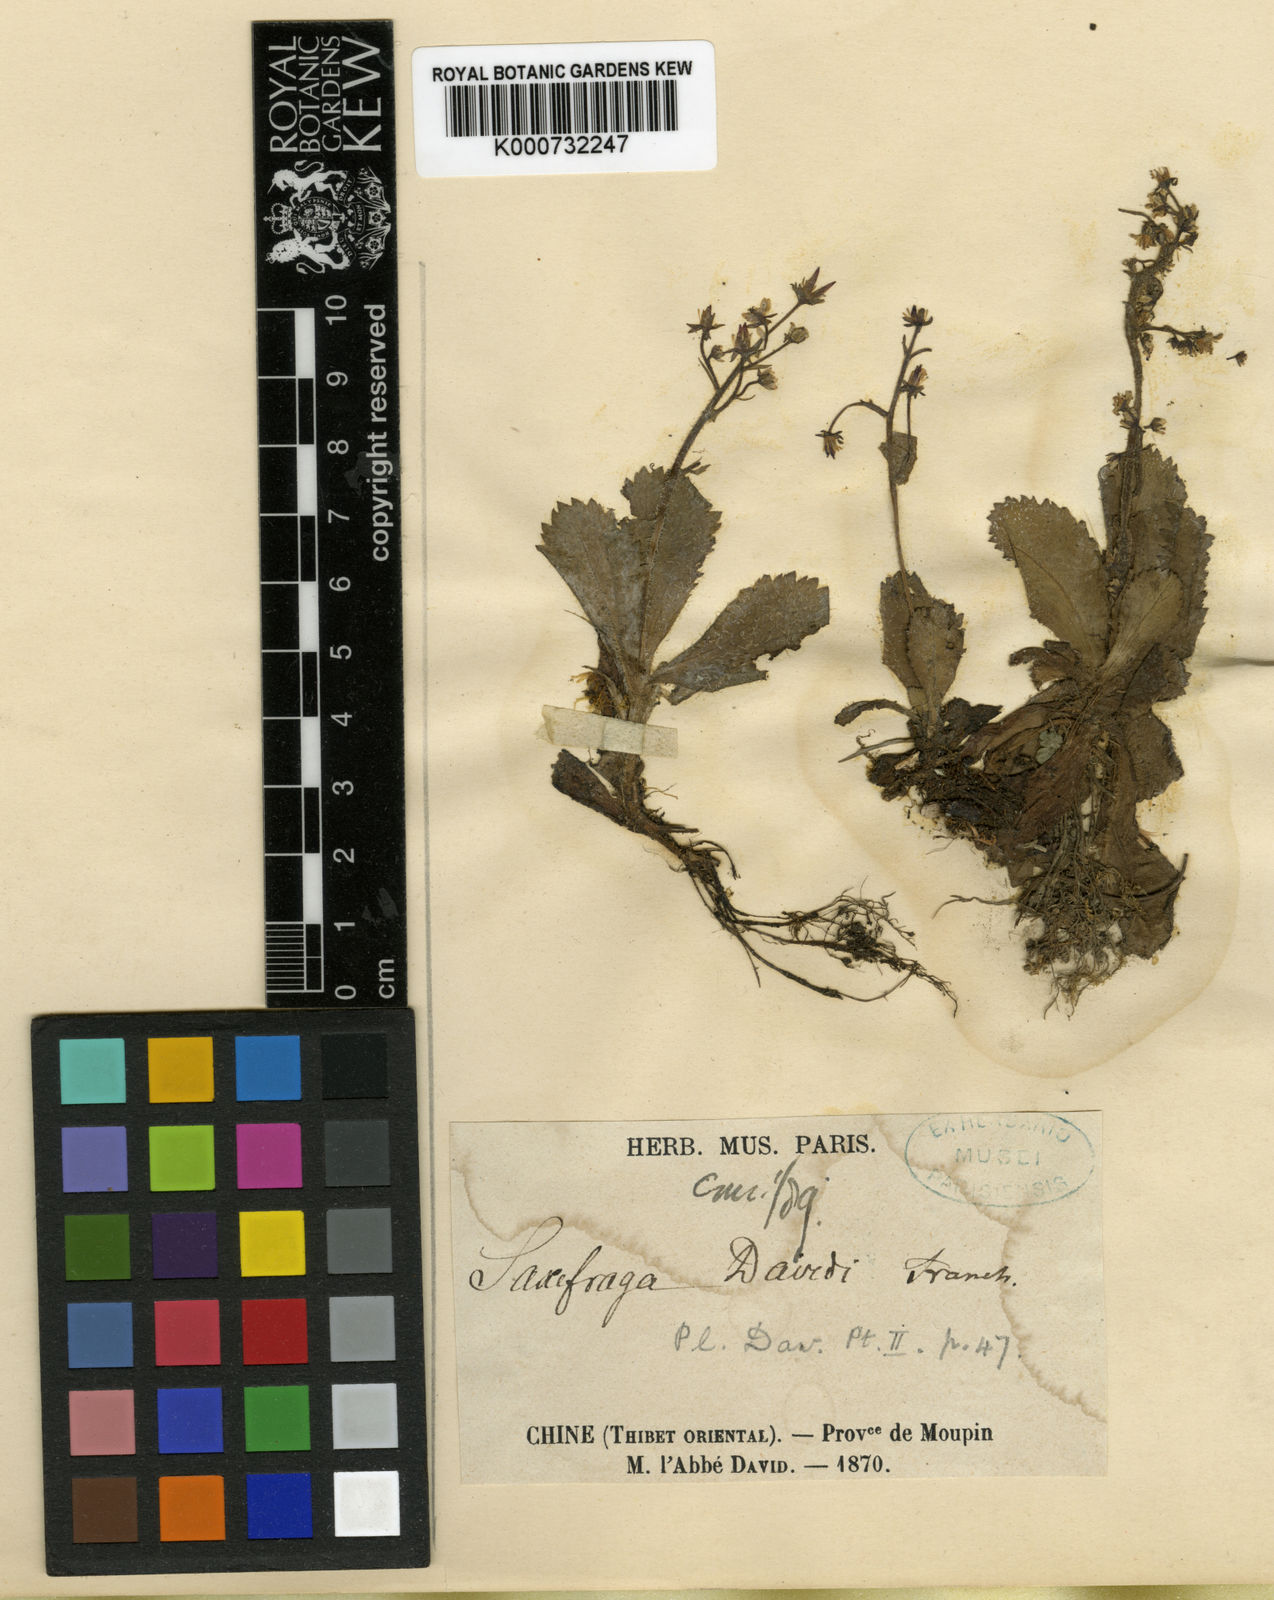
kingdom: Plantae
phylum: Tracheophyta
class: Magnoliopsida
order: Saxifragales
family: Saxifragaceae
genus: Micranthes
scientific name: Micranthes davidii
